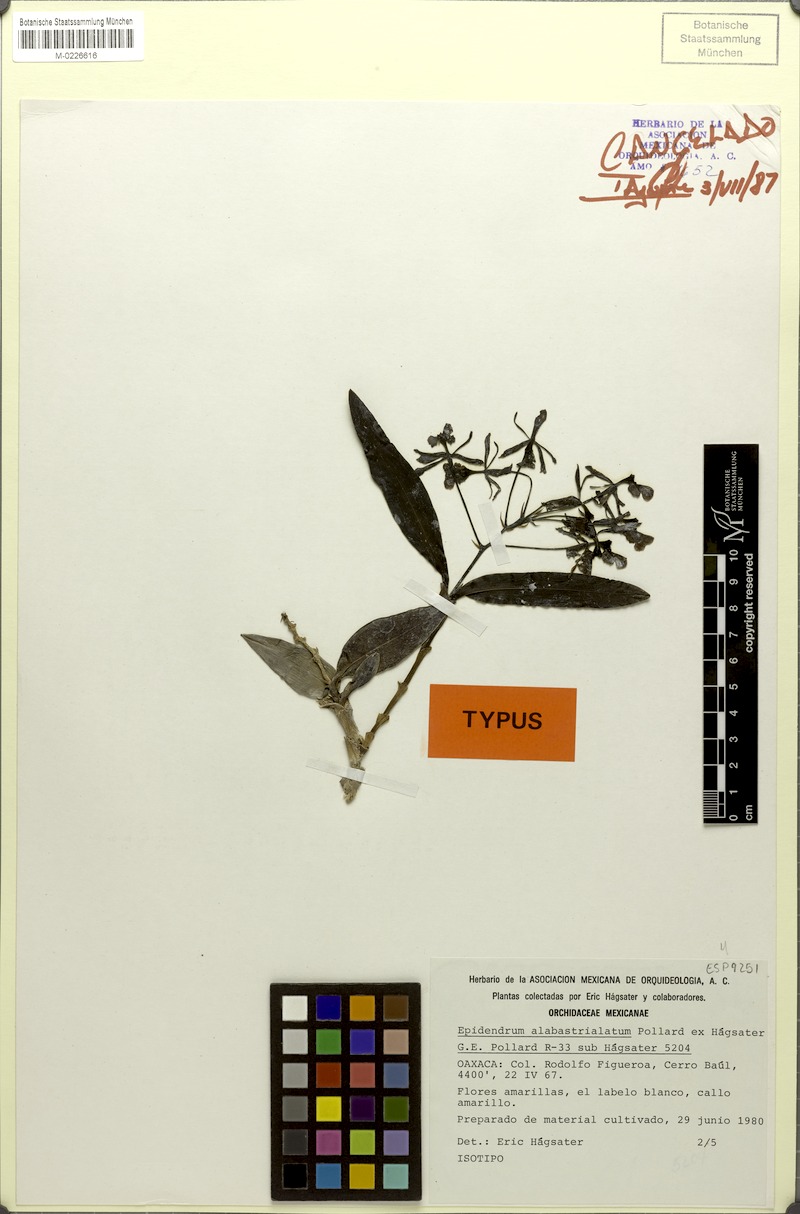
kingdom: Plantae
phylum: Tracheophyta
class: Liliopsida
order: Asparagales
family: Orchidaceae
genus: Epidendrum
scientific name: Epidendrum alabastrialatum
